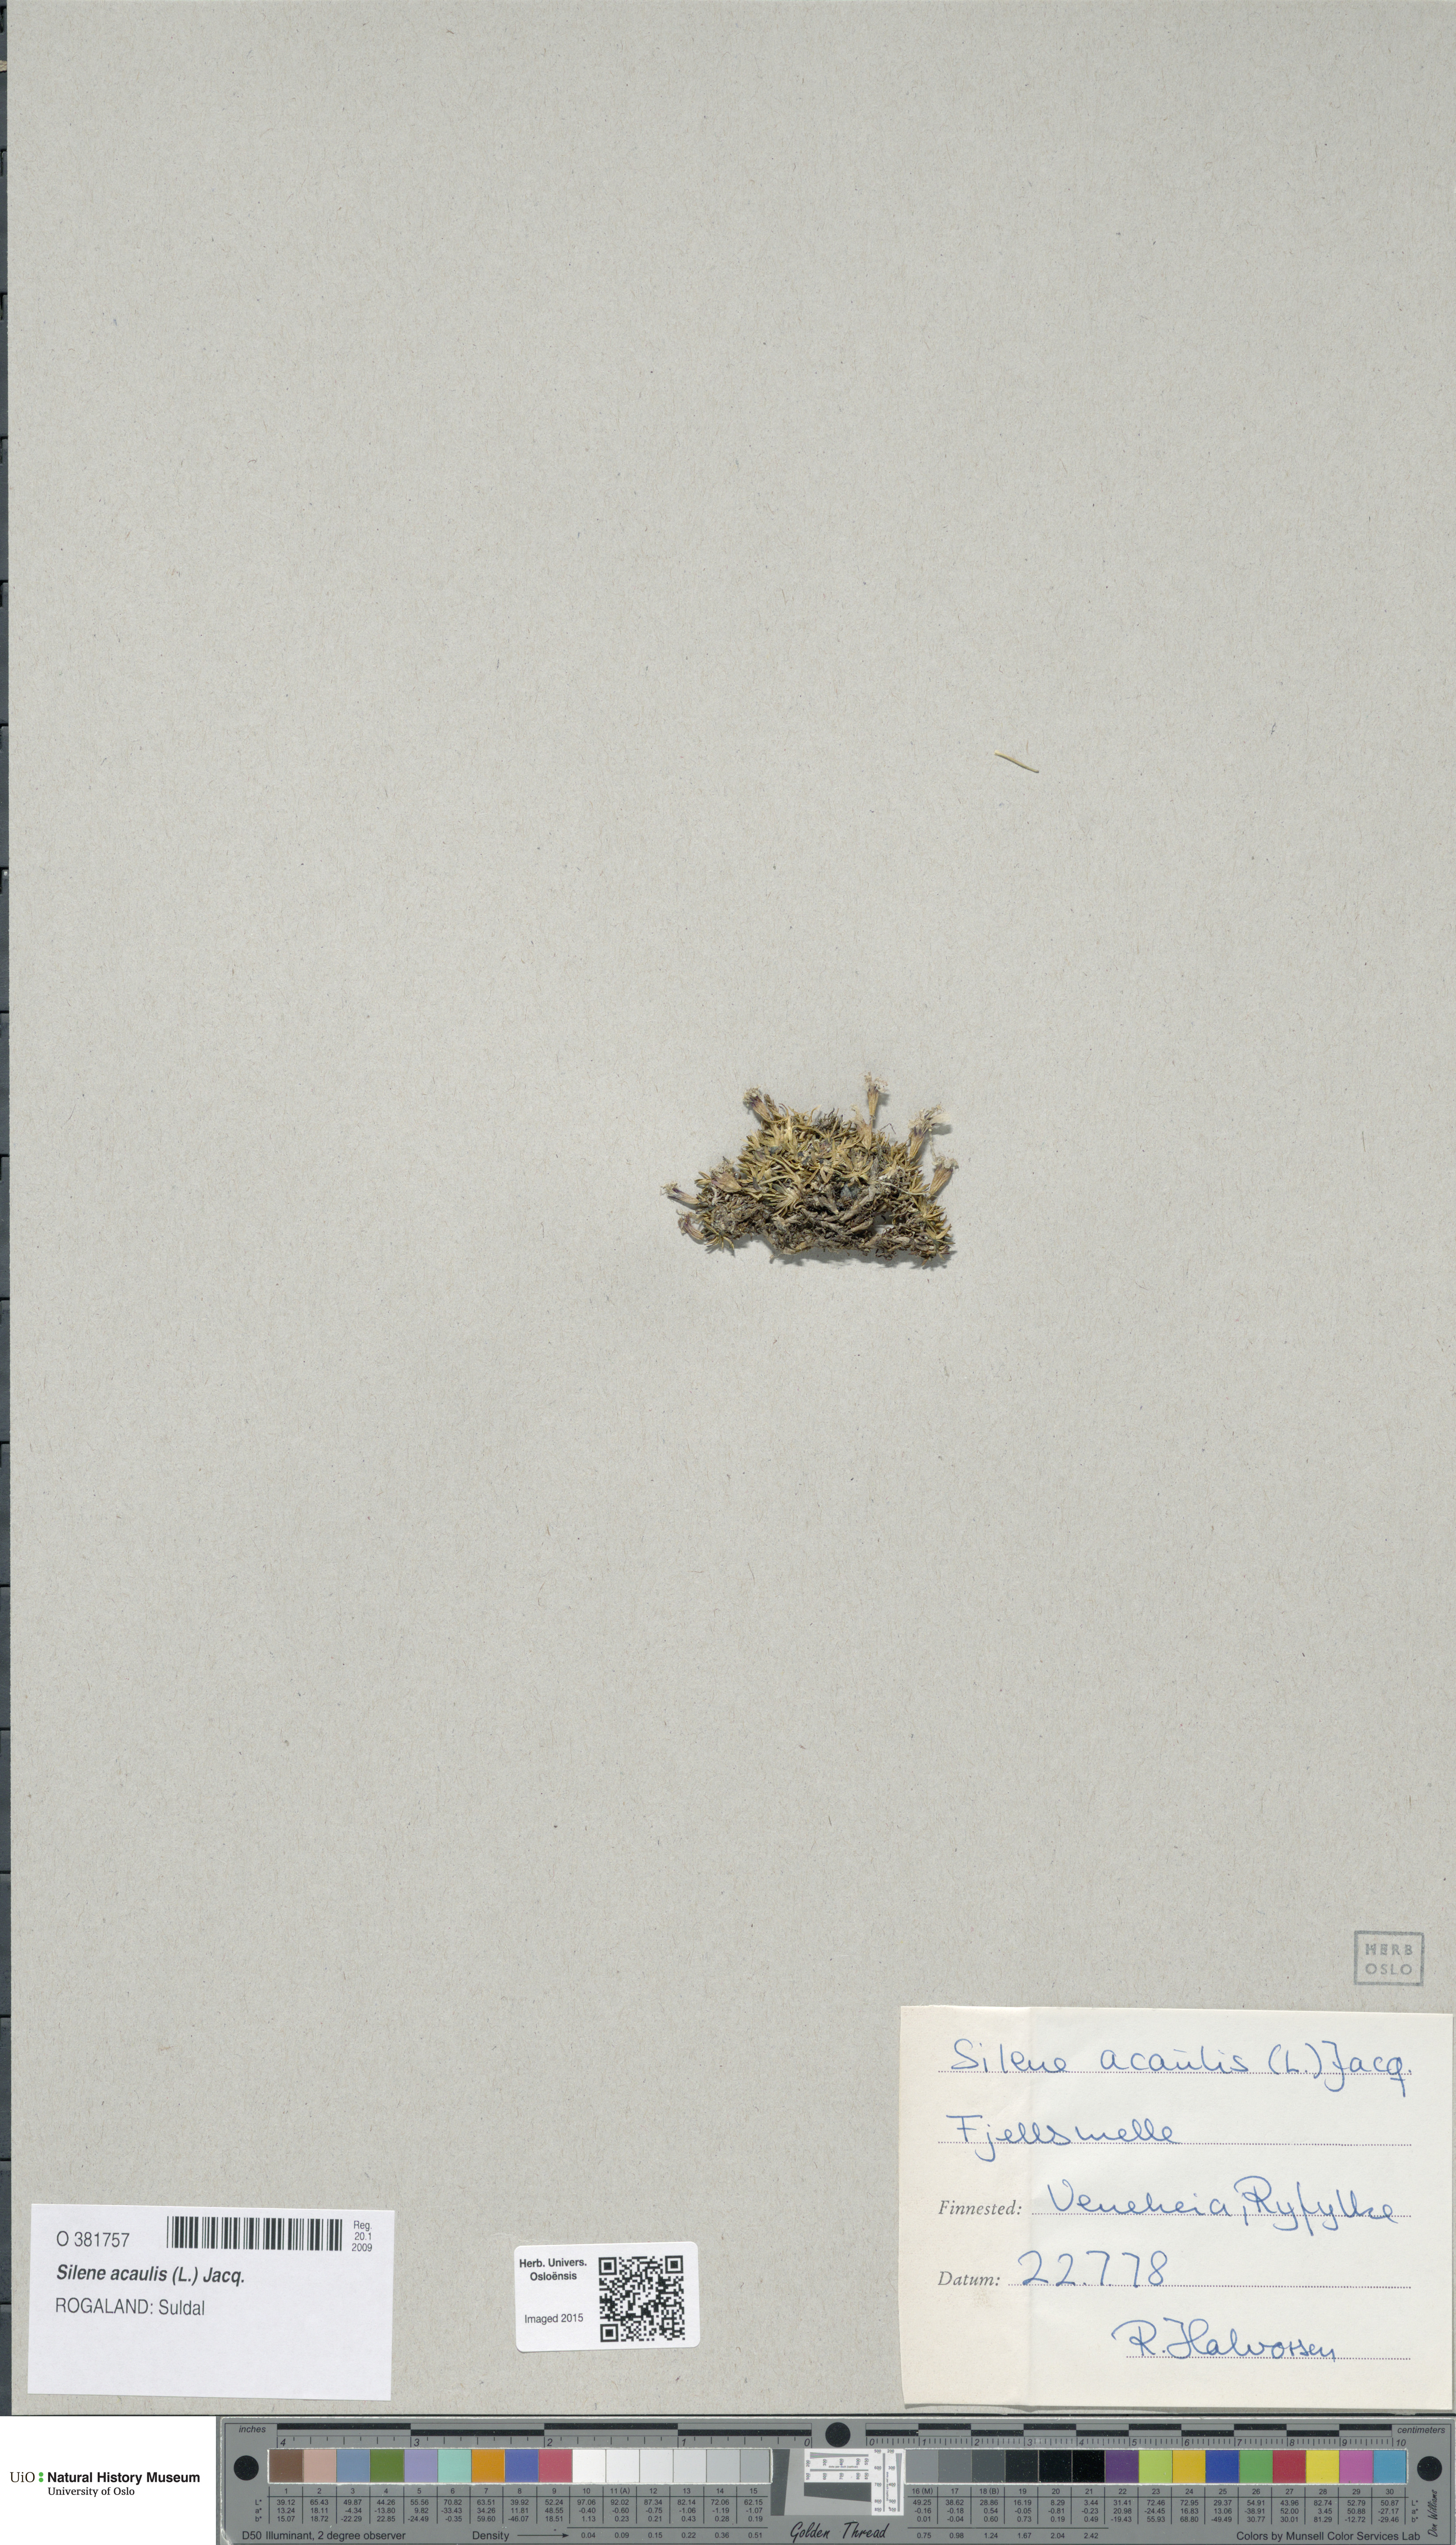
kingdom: Plantae
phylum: Tracheophyta
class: Magnoliopsida
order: Caryophyllales
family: Caryophyllaceae
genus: Silene
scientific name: Silene acaulis
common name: Moss campion
